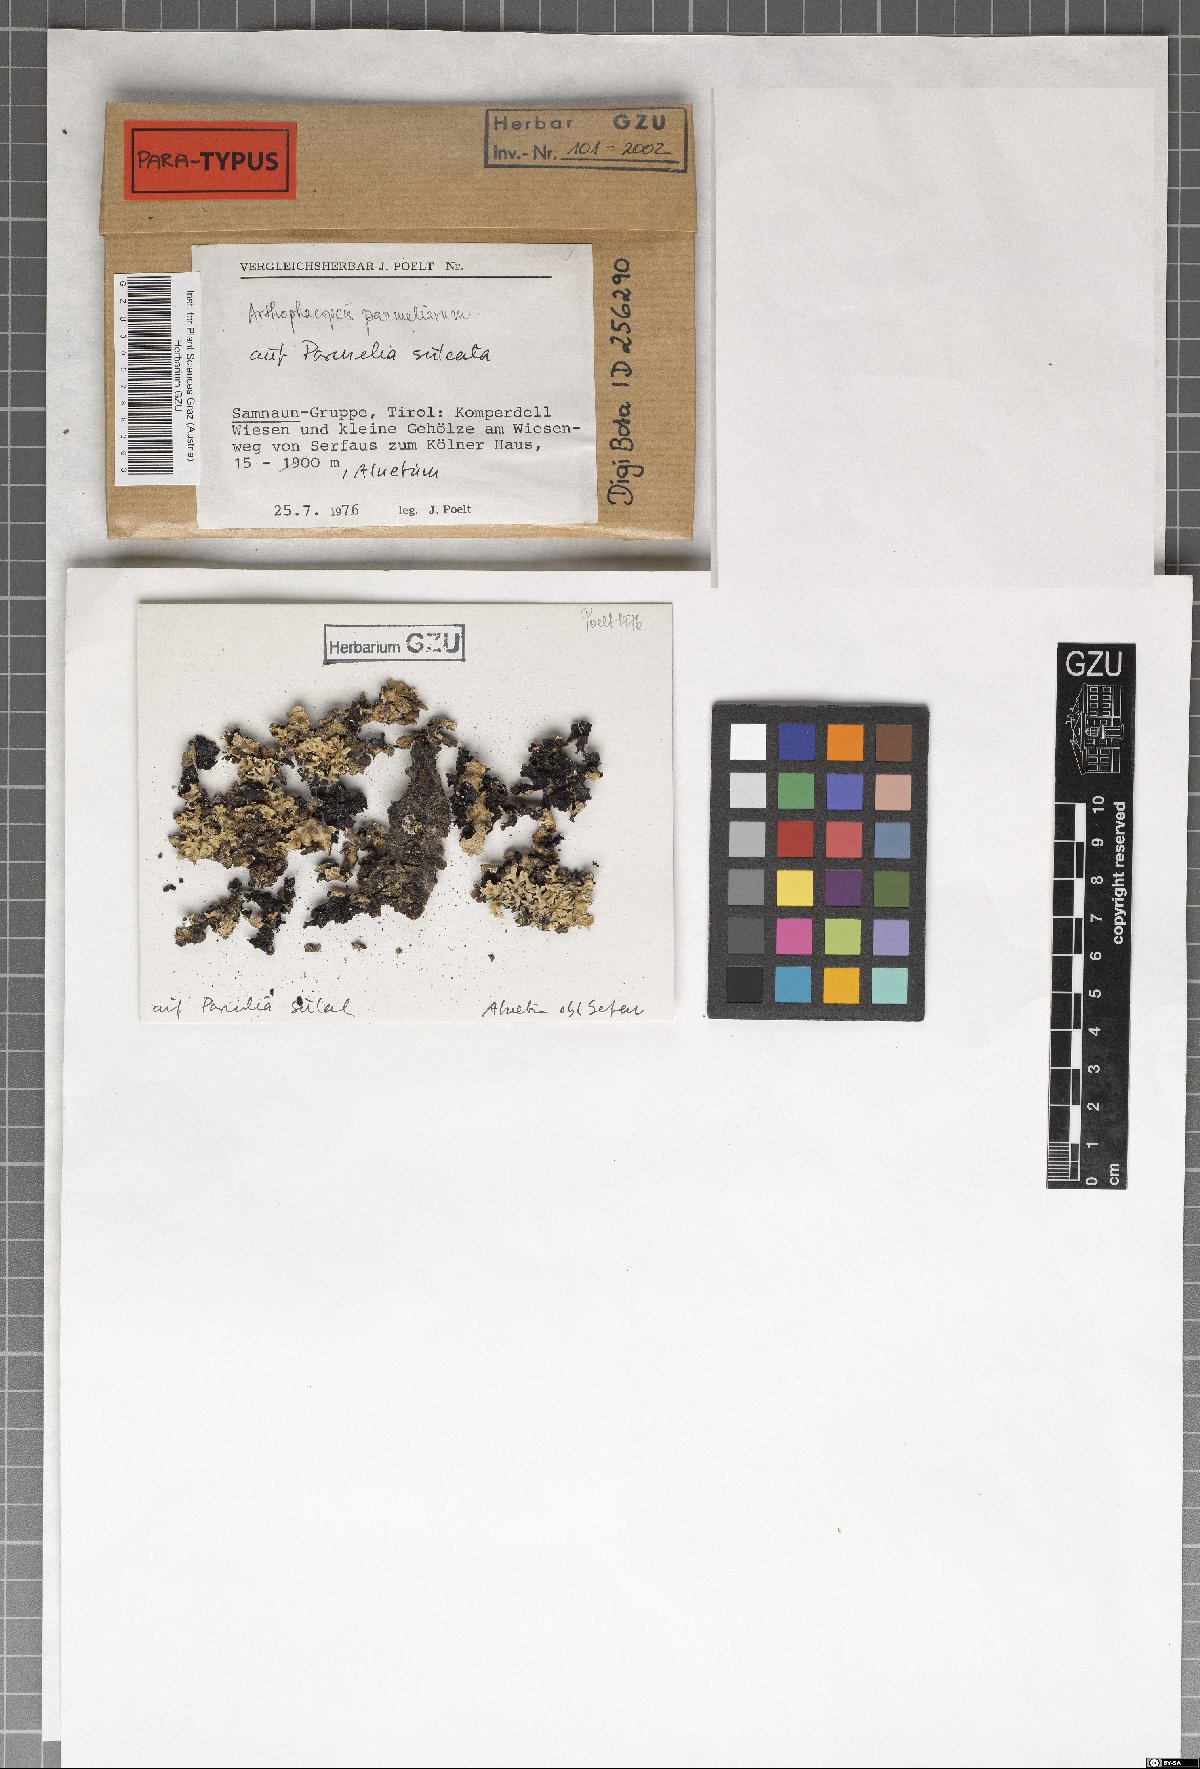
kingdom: Fungi
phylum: Ascomycota
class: Arthoniomycetes
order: Arthoniales
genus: Arthophacopsis
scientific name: Arthophacopsis parmeliarum
